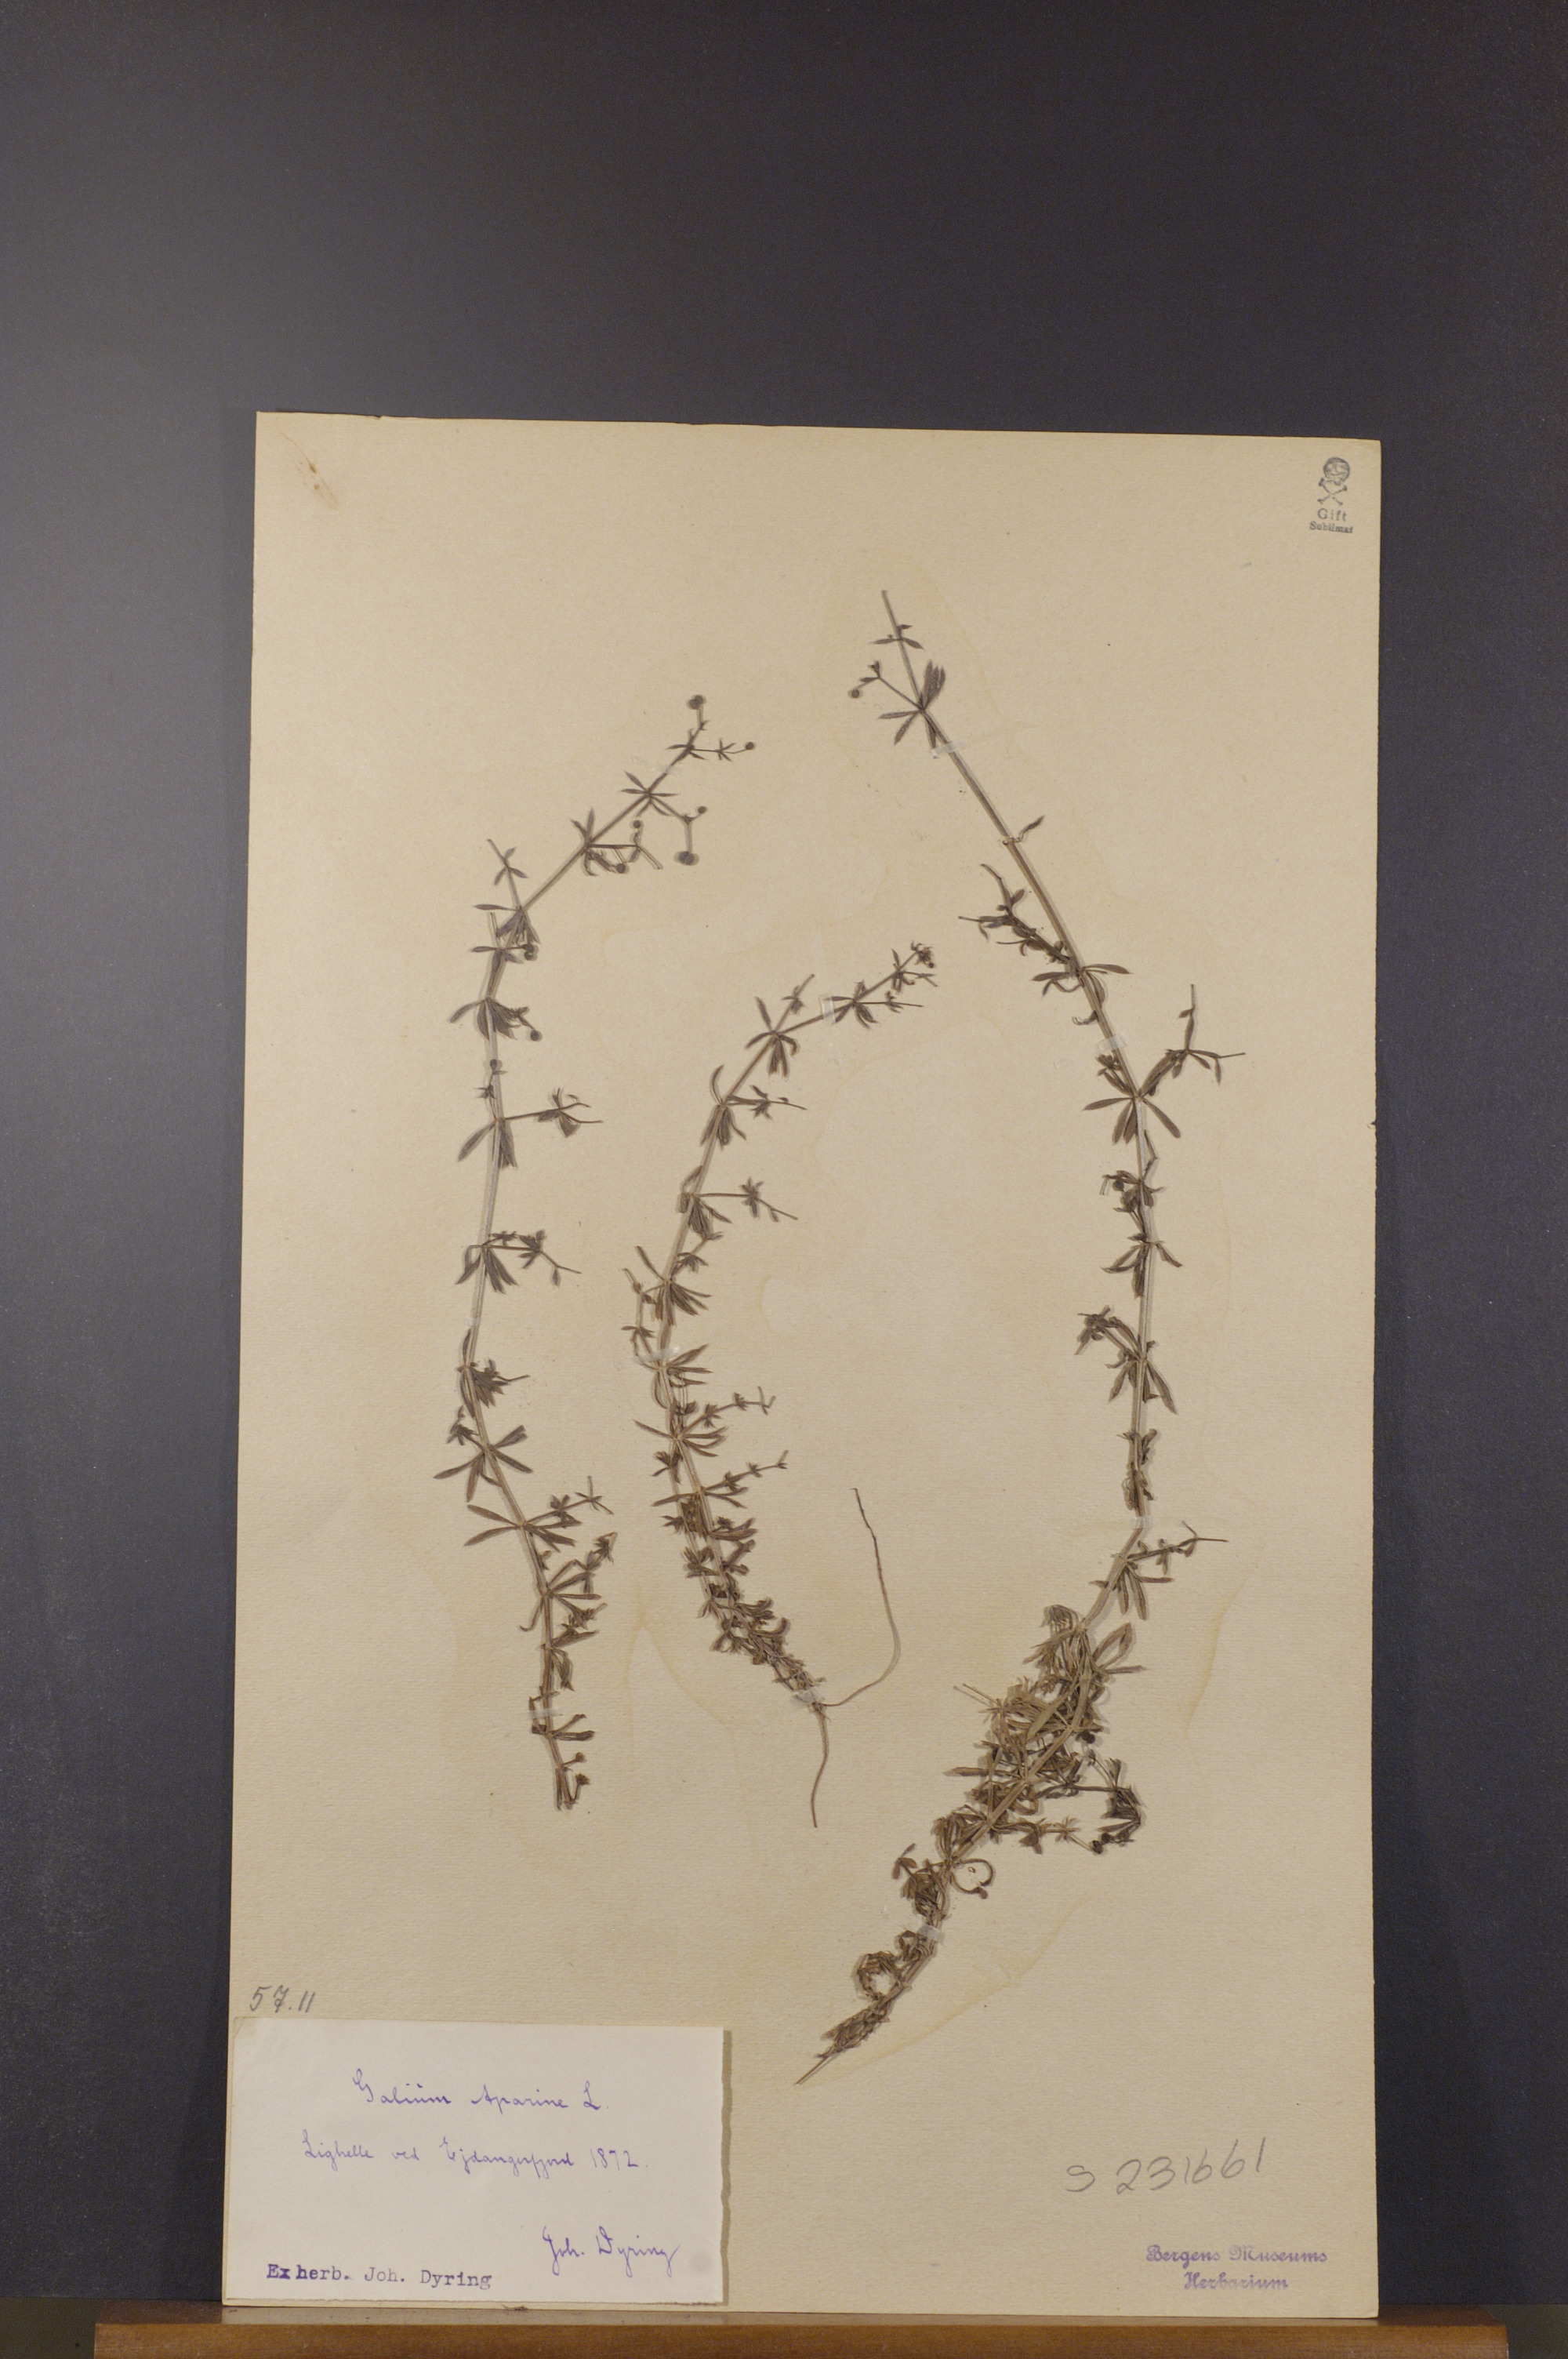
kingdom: Plantae
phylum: Tracheophyta
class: Magnoliopsida
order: Gentianales
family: Rubiaceae
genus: Galium
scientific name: Galium aparine
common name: Cleavers
